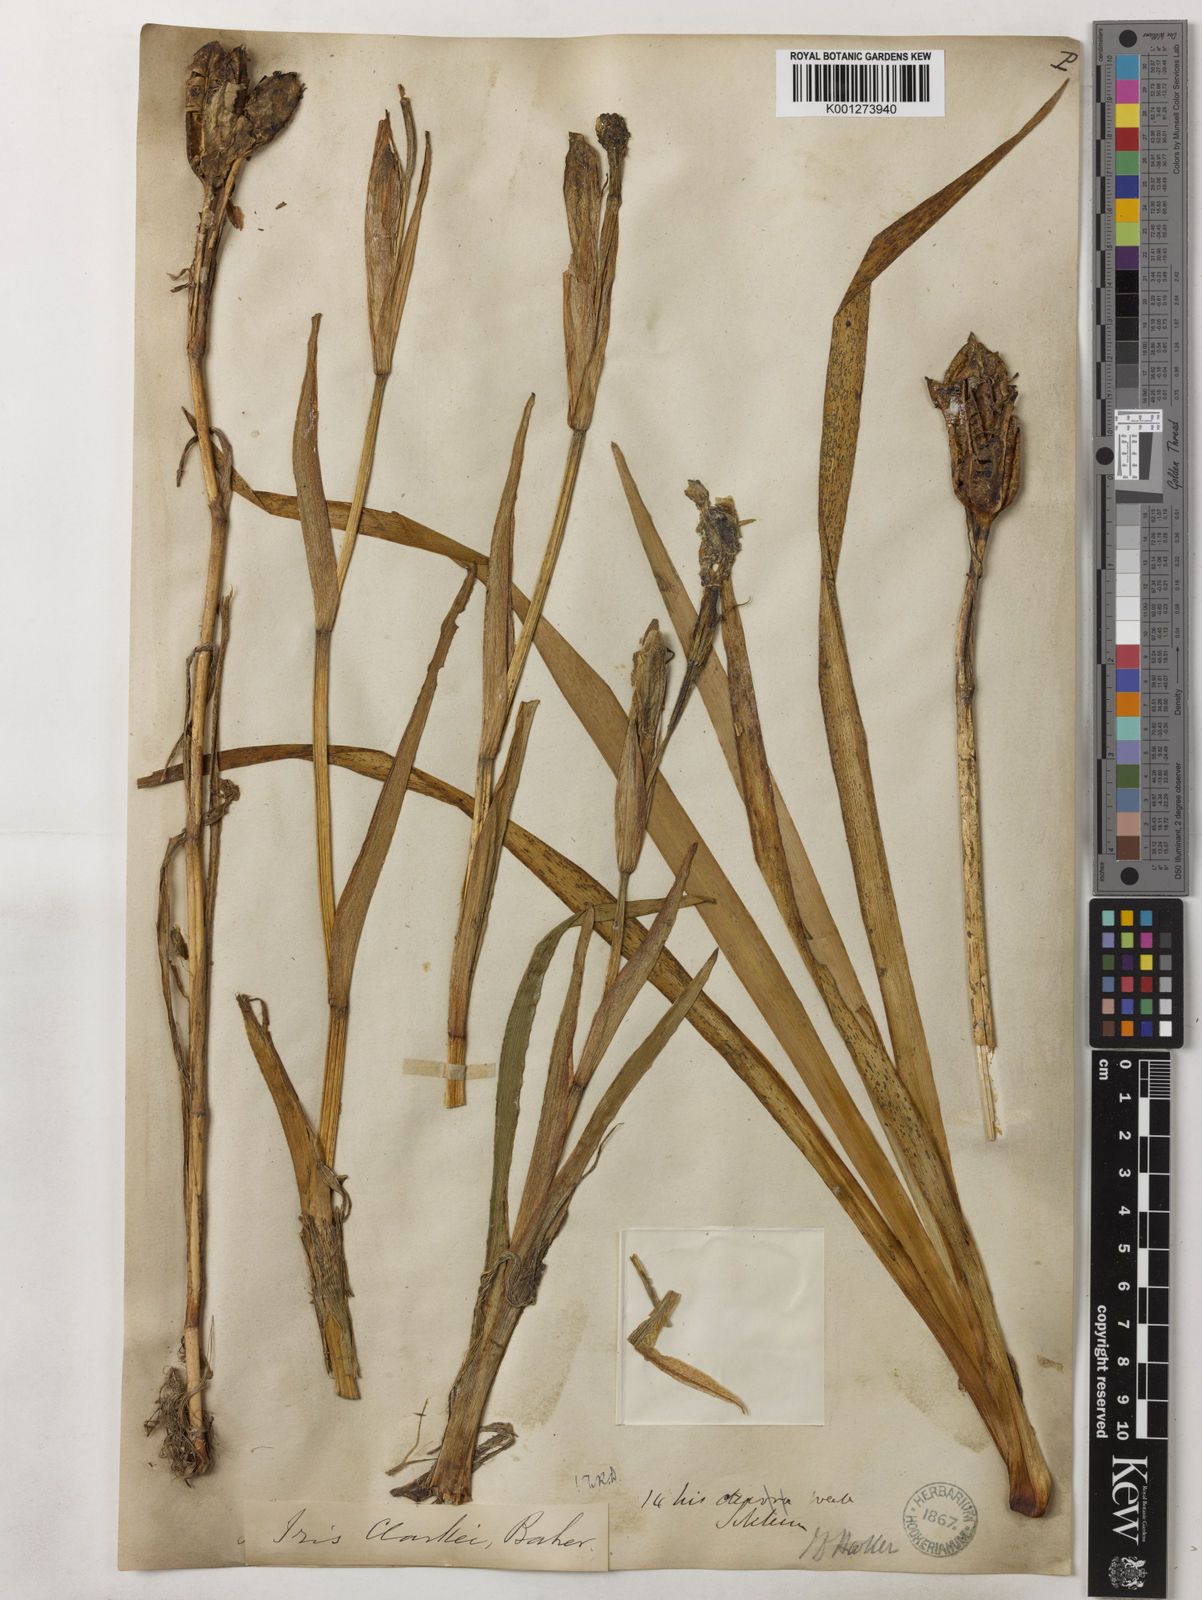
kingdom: Plantae
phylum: Tracheophyta
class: Liliopsida
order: Asparagales
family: Iridaceae
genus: Iris
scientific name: Iris clarkei
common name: Tibet iris
